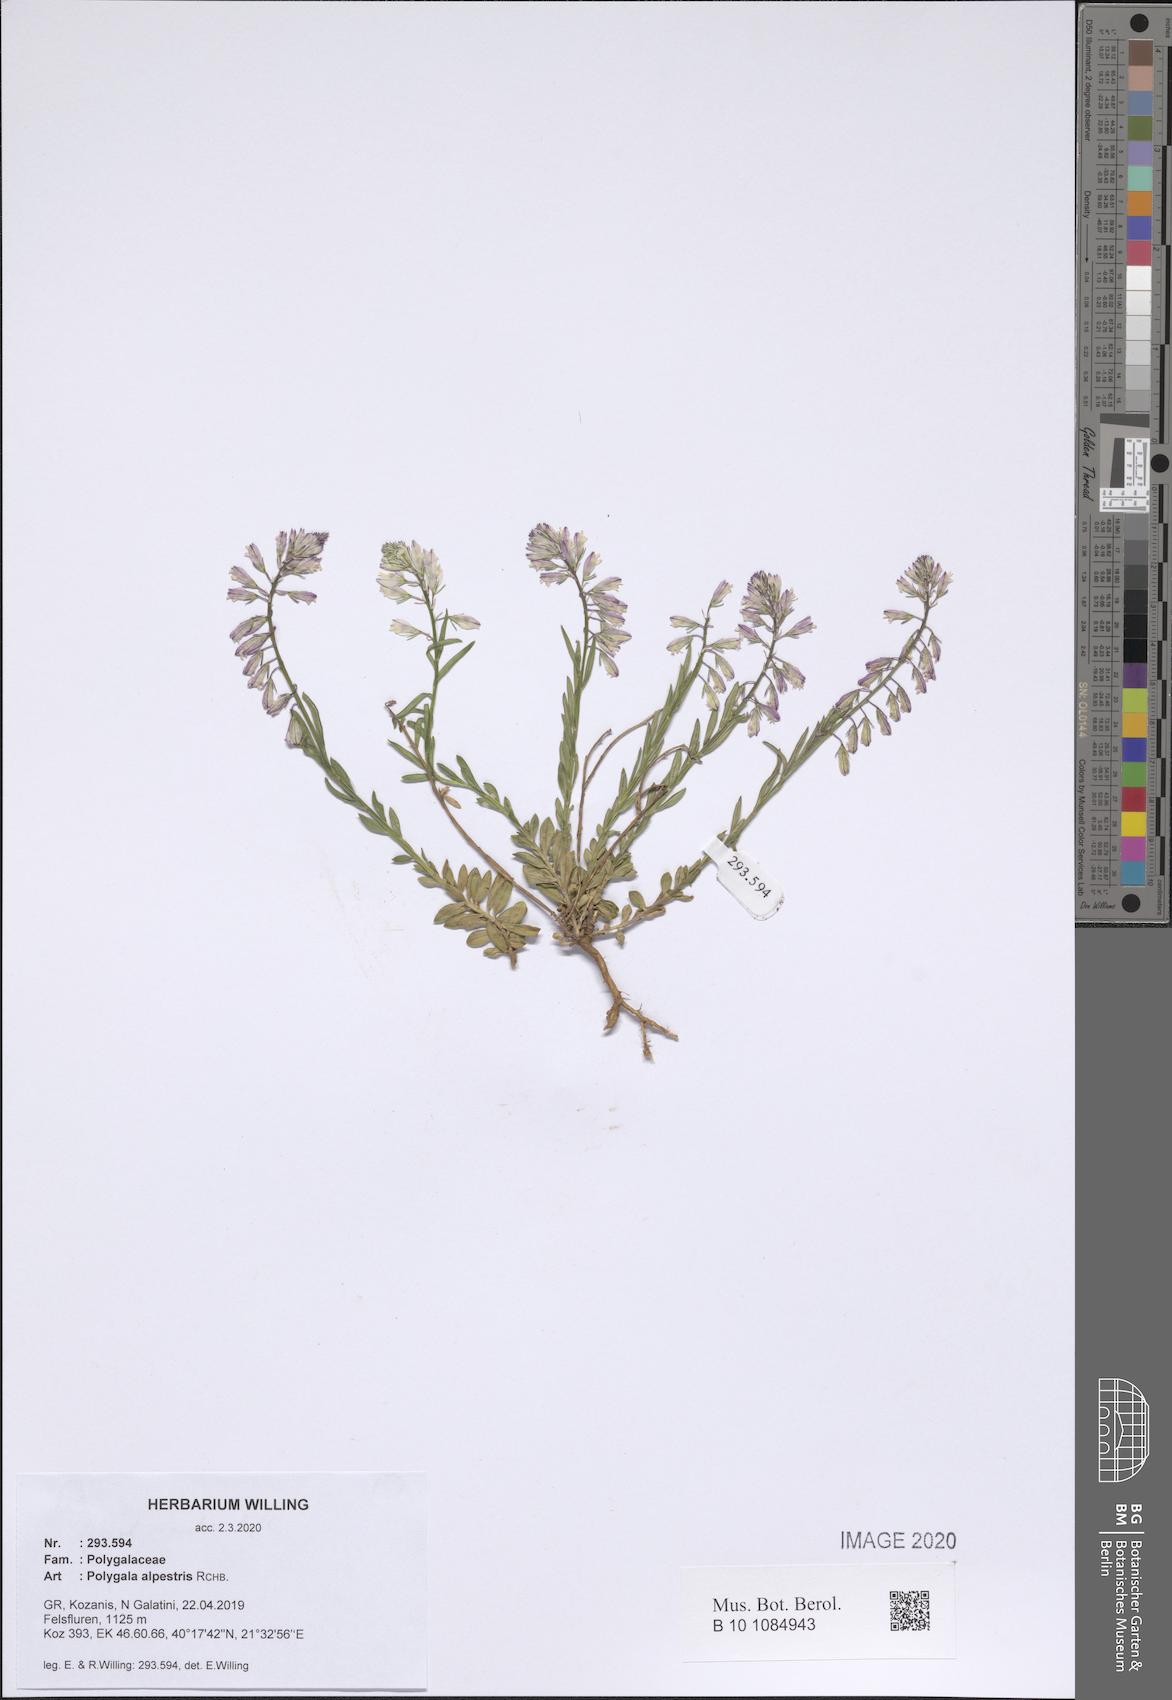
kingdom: Plantae
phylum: Tracheophyta
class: Magnoliopsida
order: Fabales
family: Polygalaceae
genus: Polygala
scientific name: Polygala alpestris
